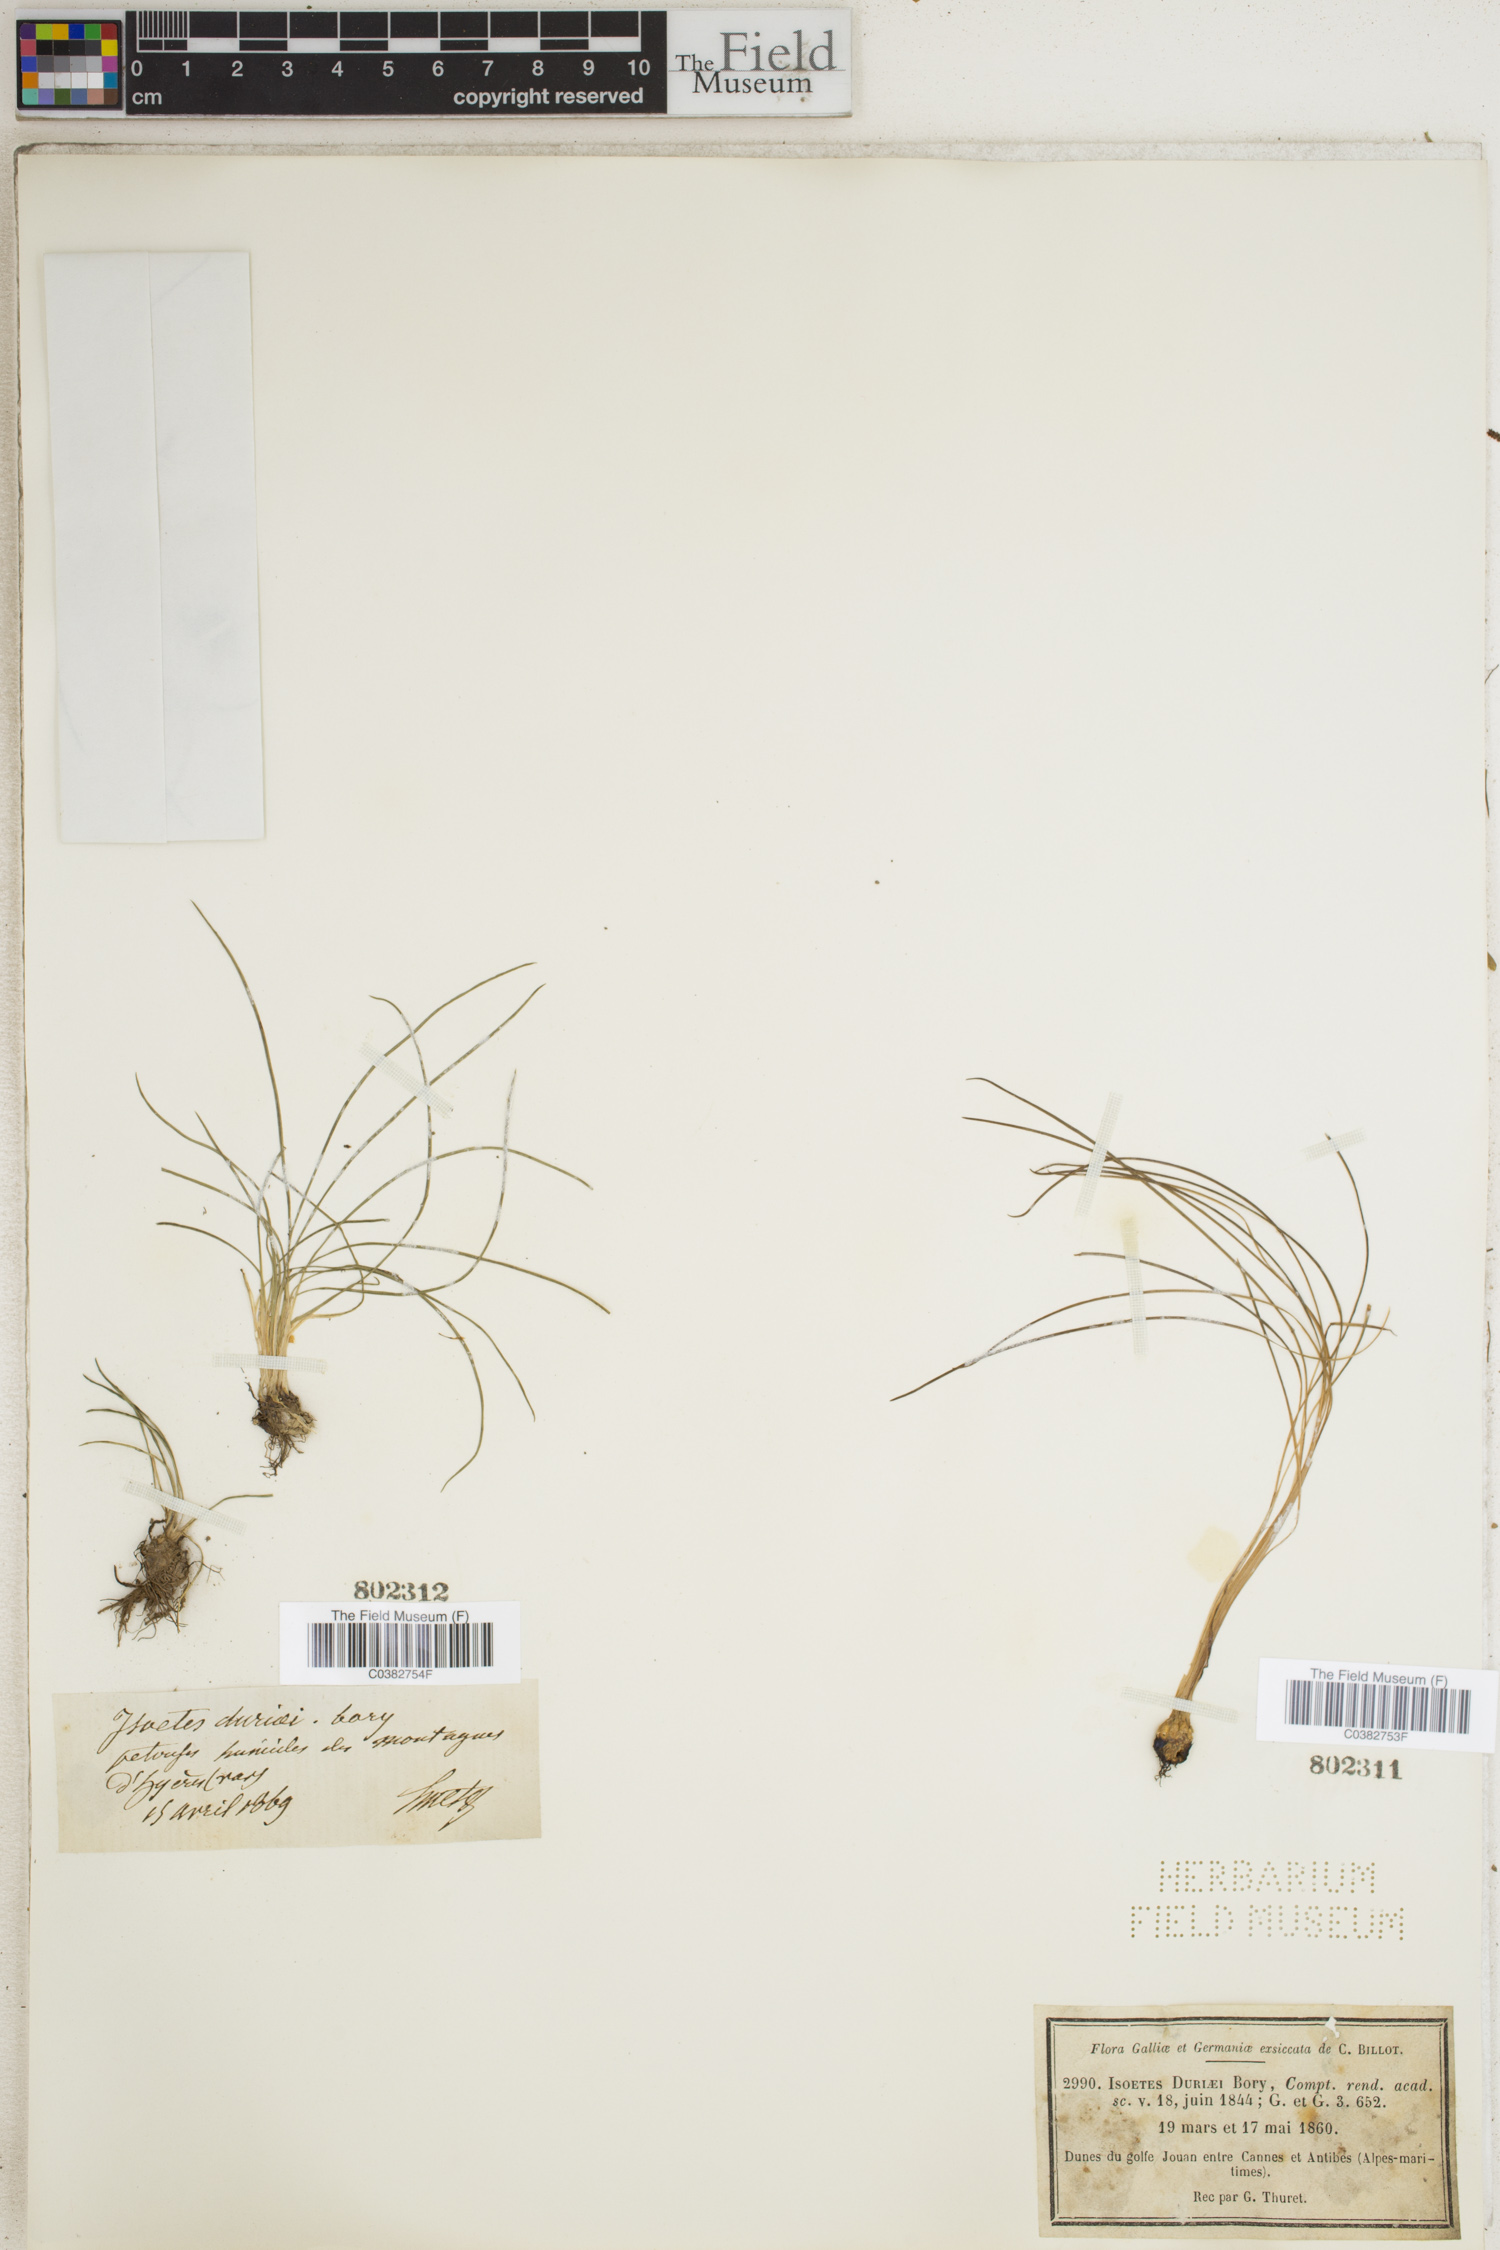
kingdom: Plantae
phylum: Tracheophyta
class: Lycopodiopsida
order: Isoetales
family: Isoetaceae
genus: Isoetes
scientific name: Isoetes duriei
